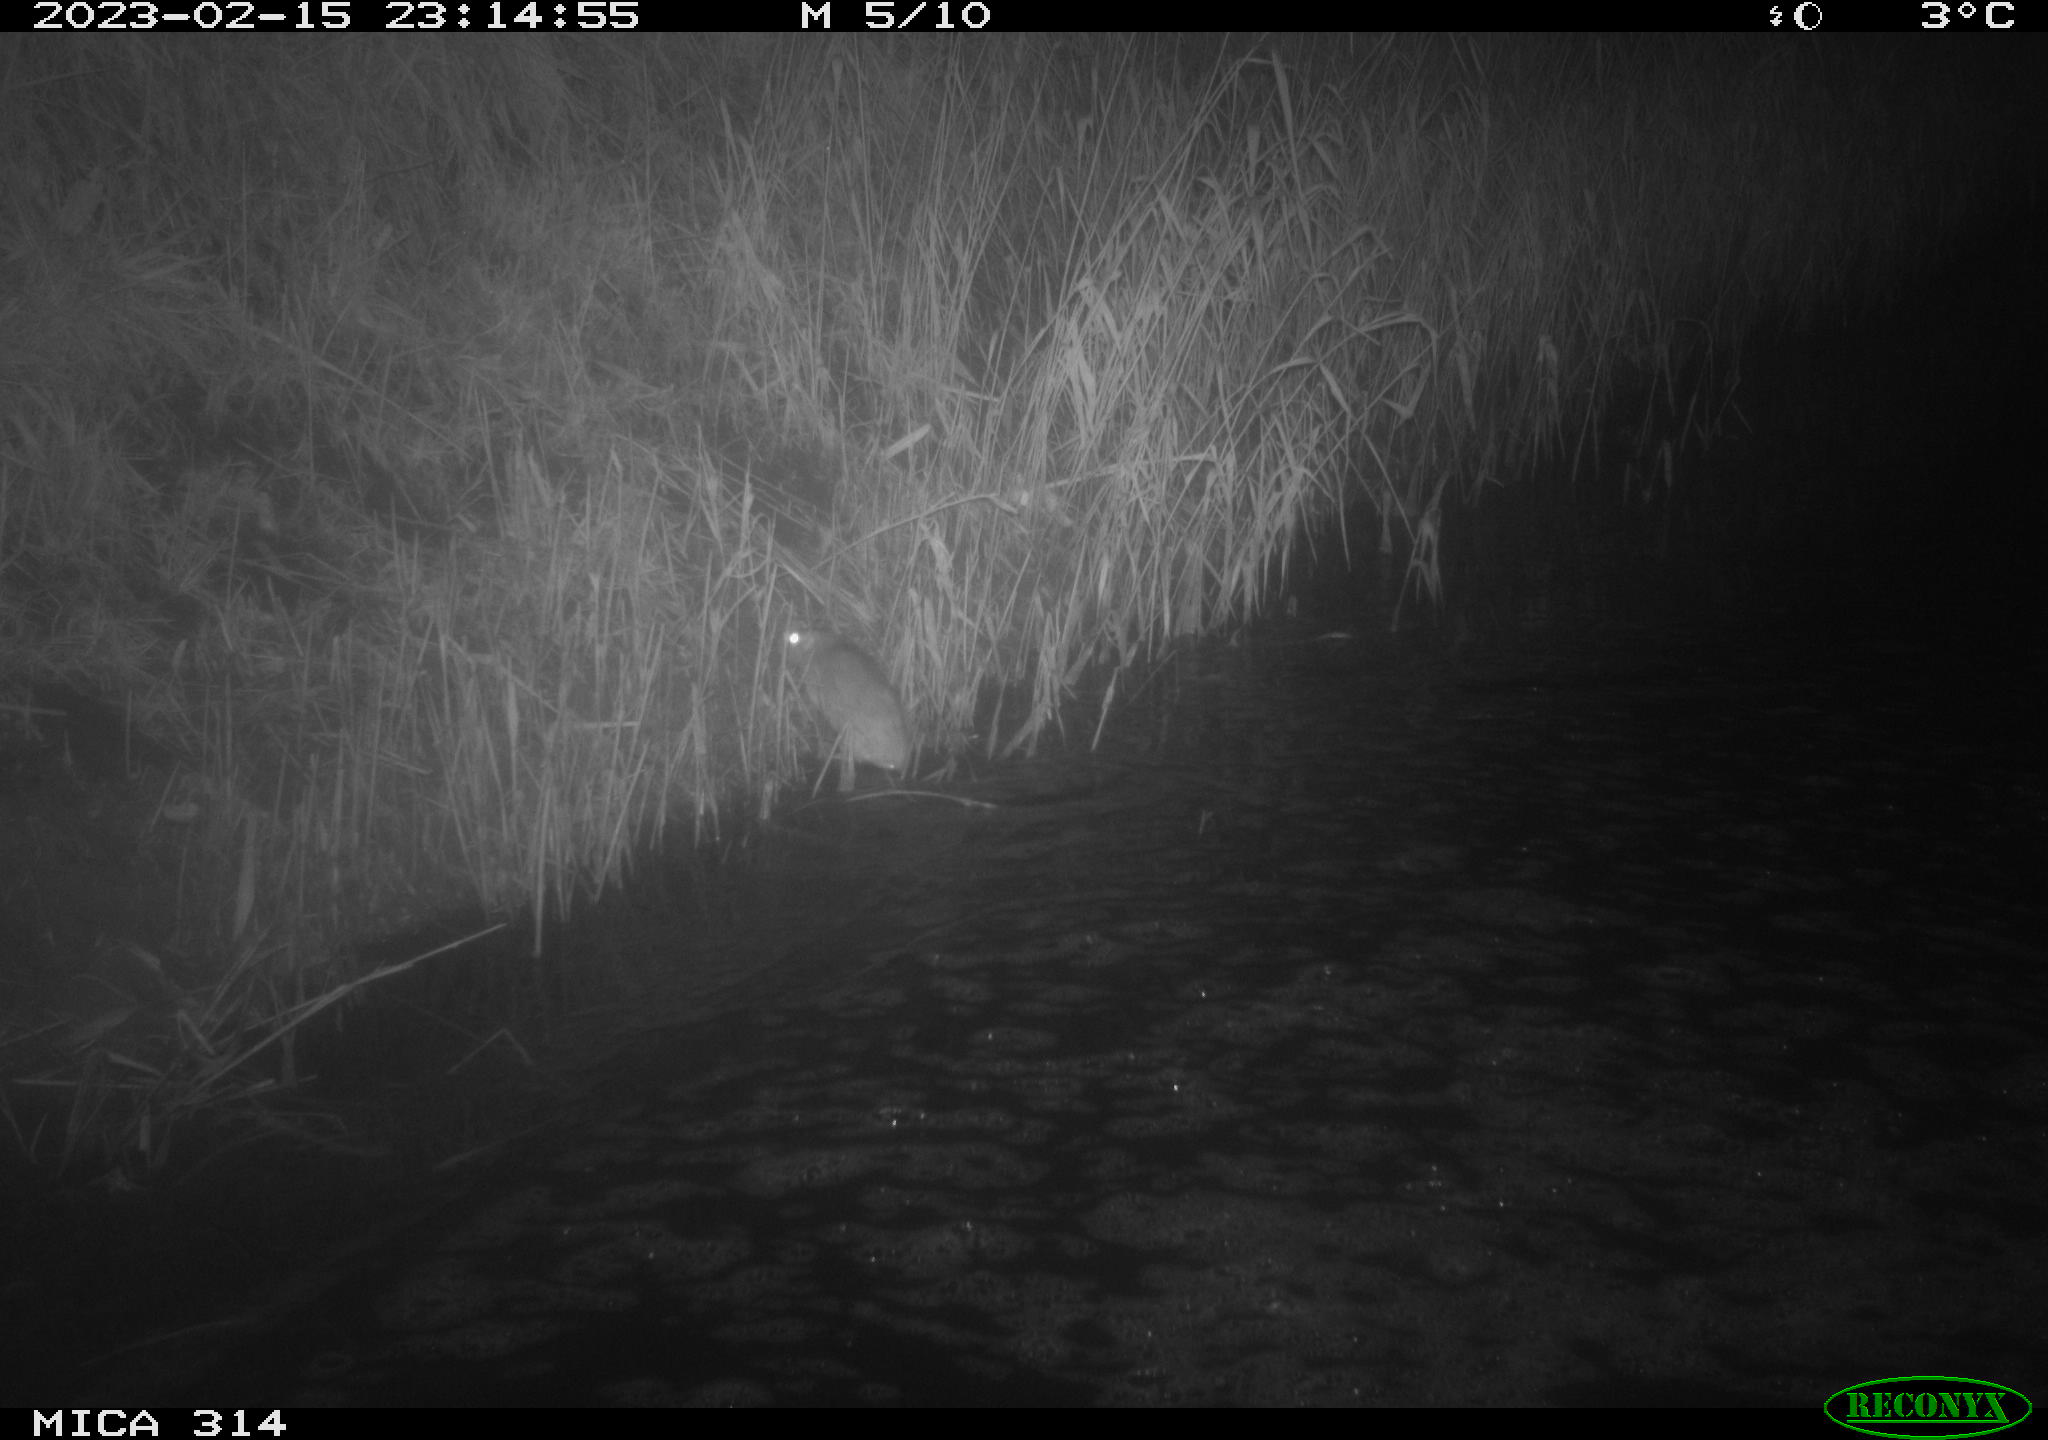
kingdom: Animalia
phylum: Chordata
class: Mammalia
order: Rodentia
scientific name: Rodentia
